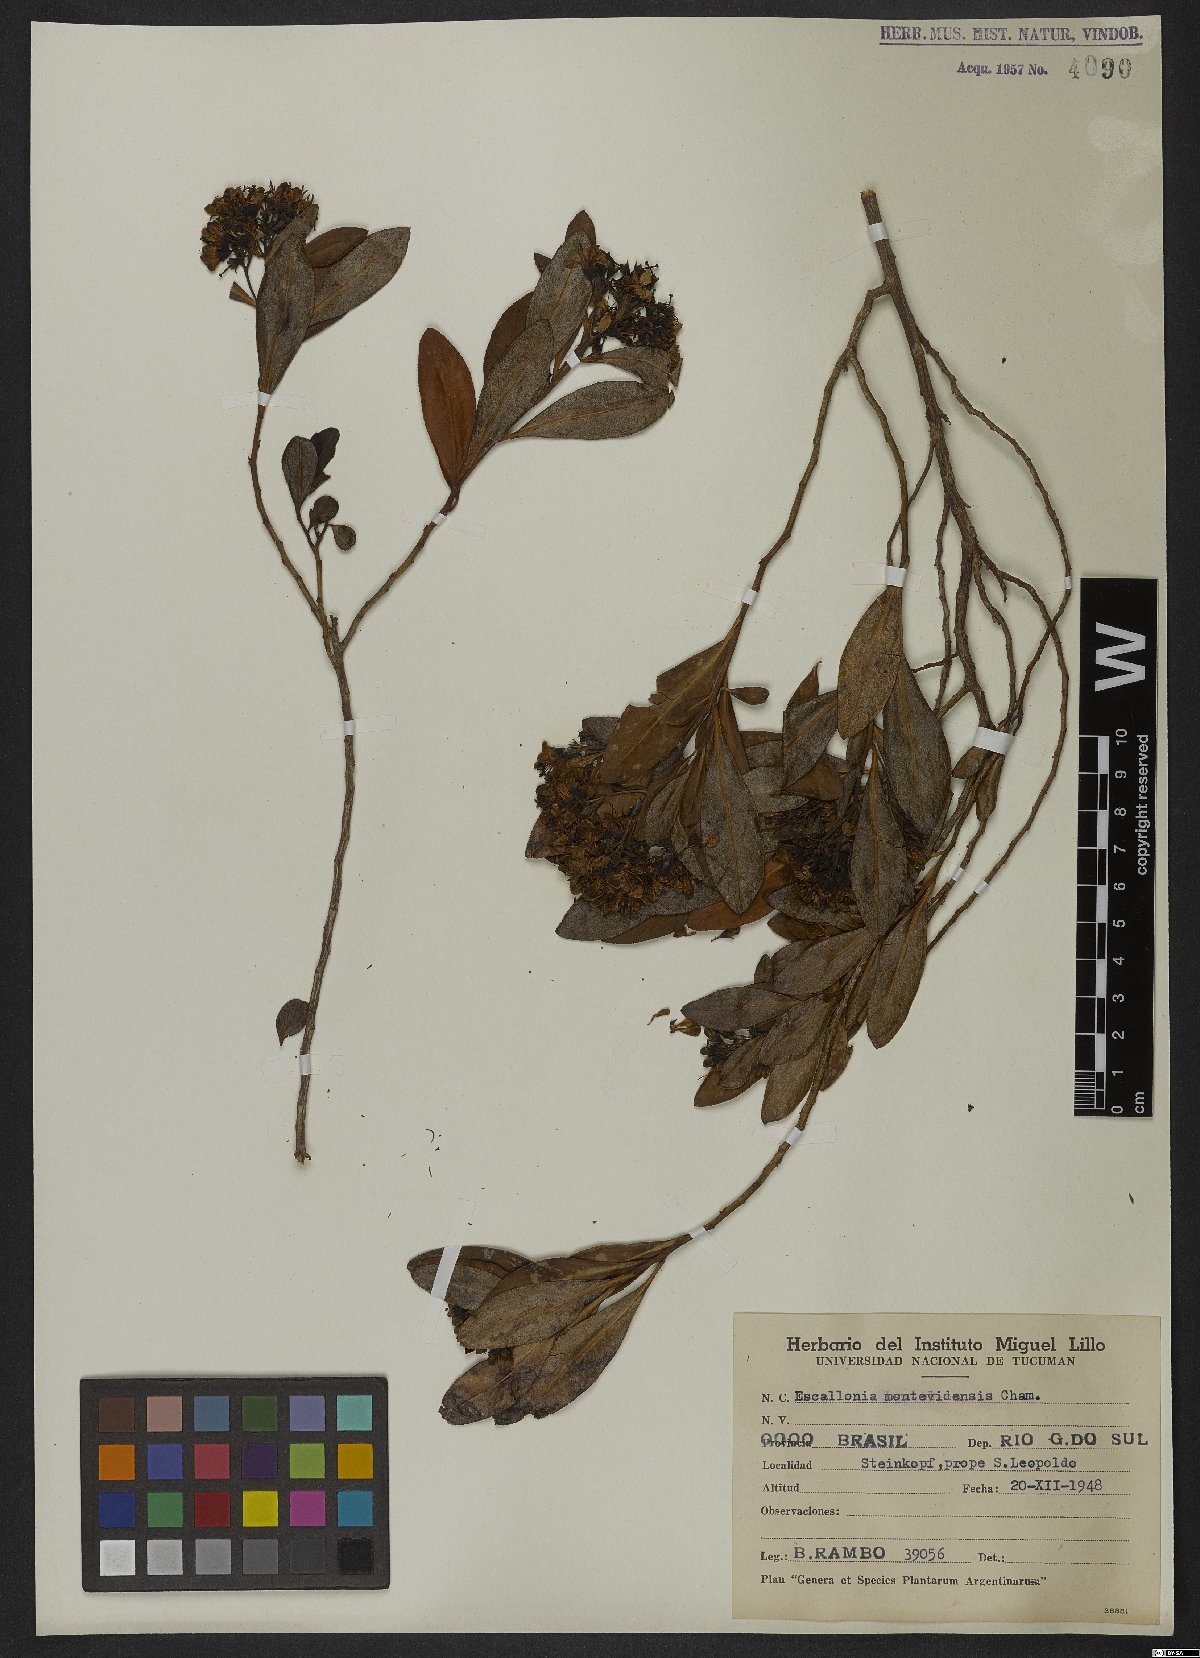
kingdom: Plantae
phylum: Tracheophyta
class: Magnoliopsida
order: Escalloniales
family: Escalloniaceae
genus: Escallonia
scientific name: Escallonia bifida
